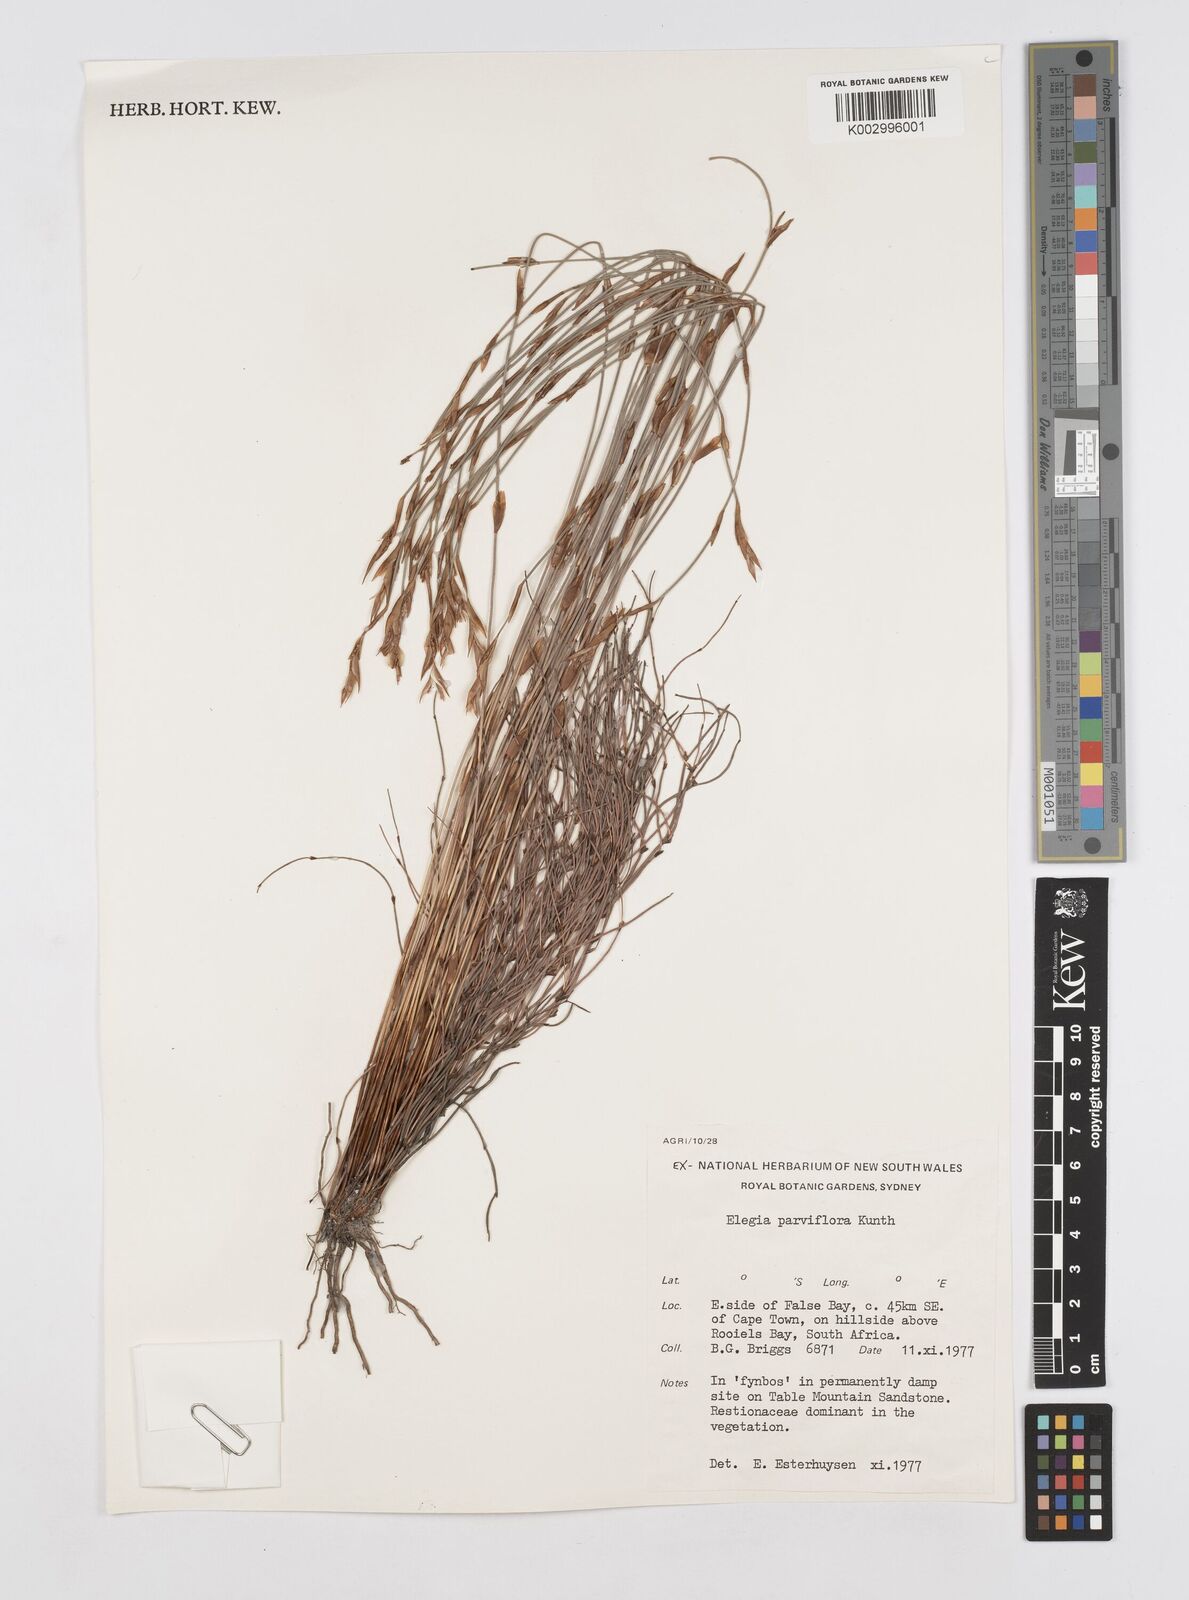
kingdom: Plantae
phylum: Tracheophyta
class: Liliopsida
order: Poales
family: Restionaceae
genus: Cannomois
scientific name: Cannomois parviflora
